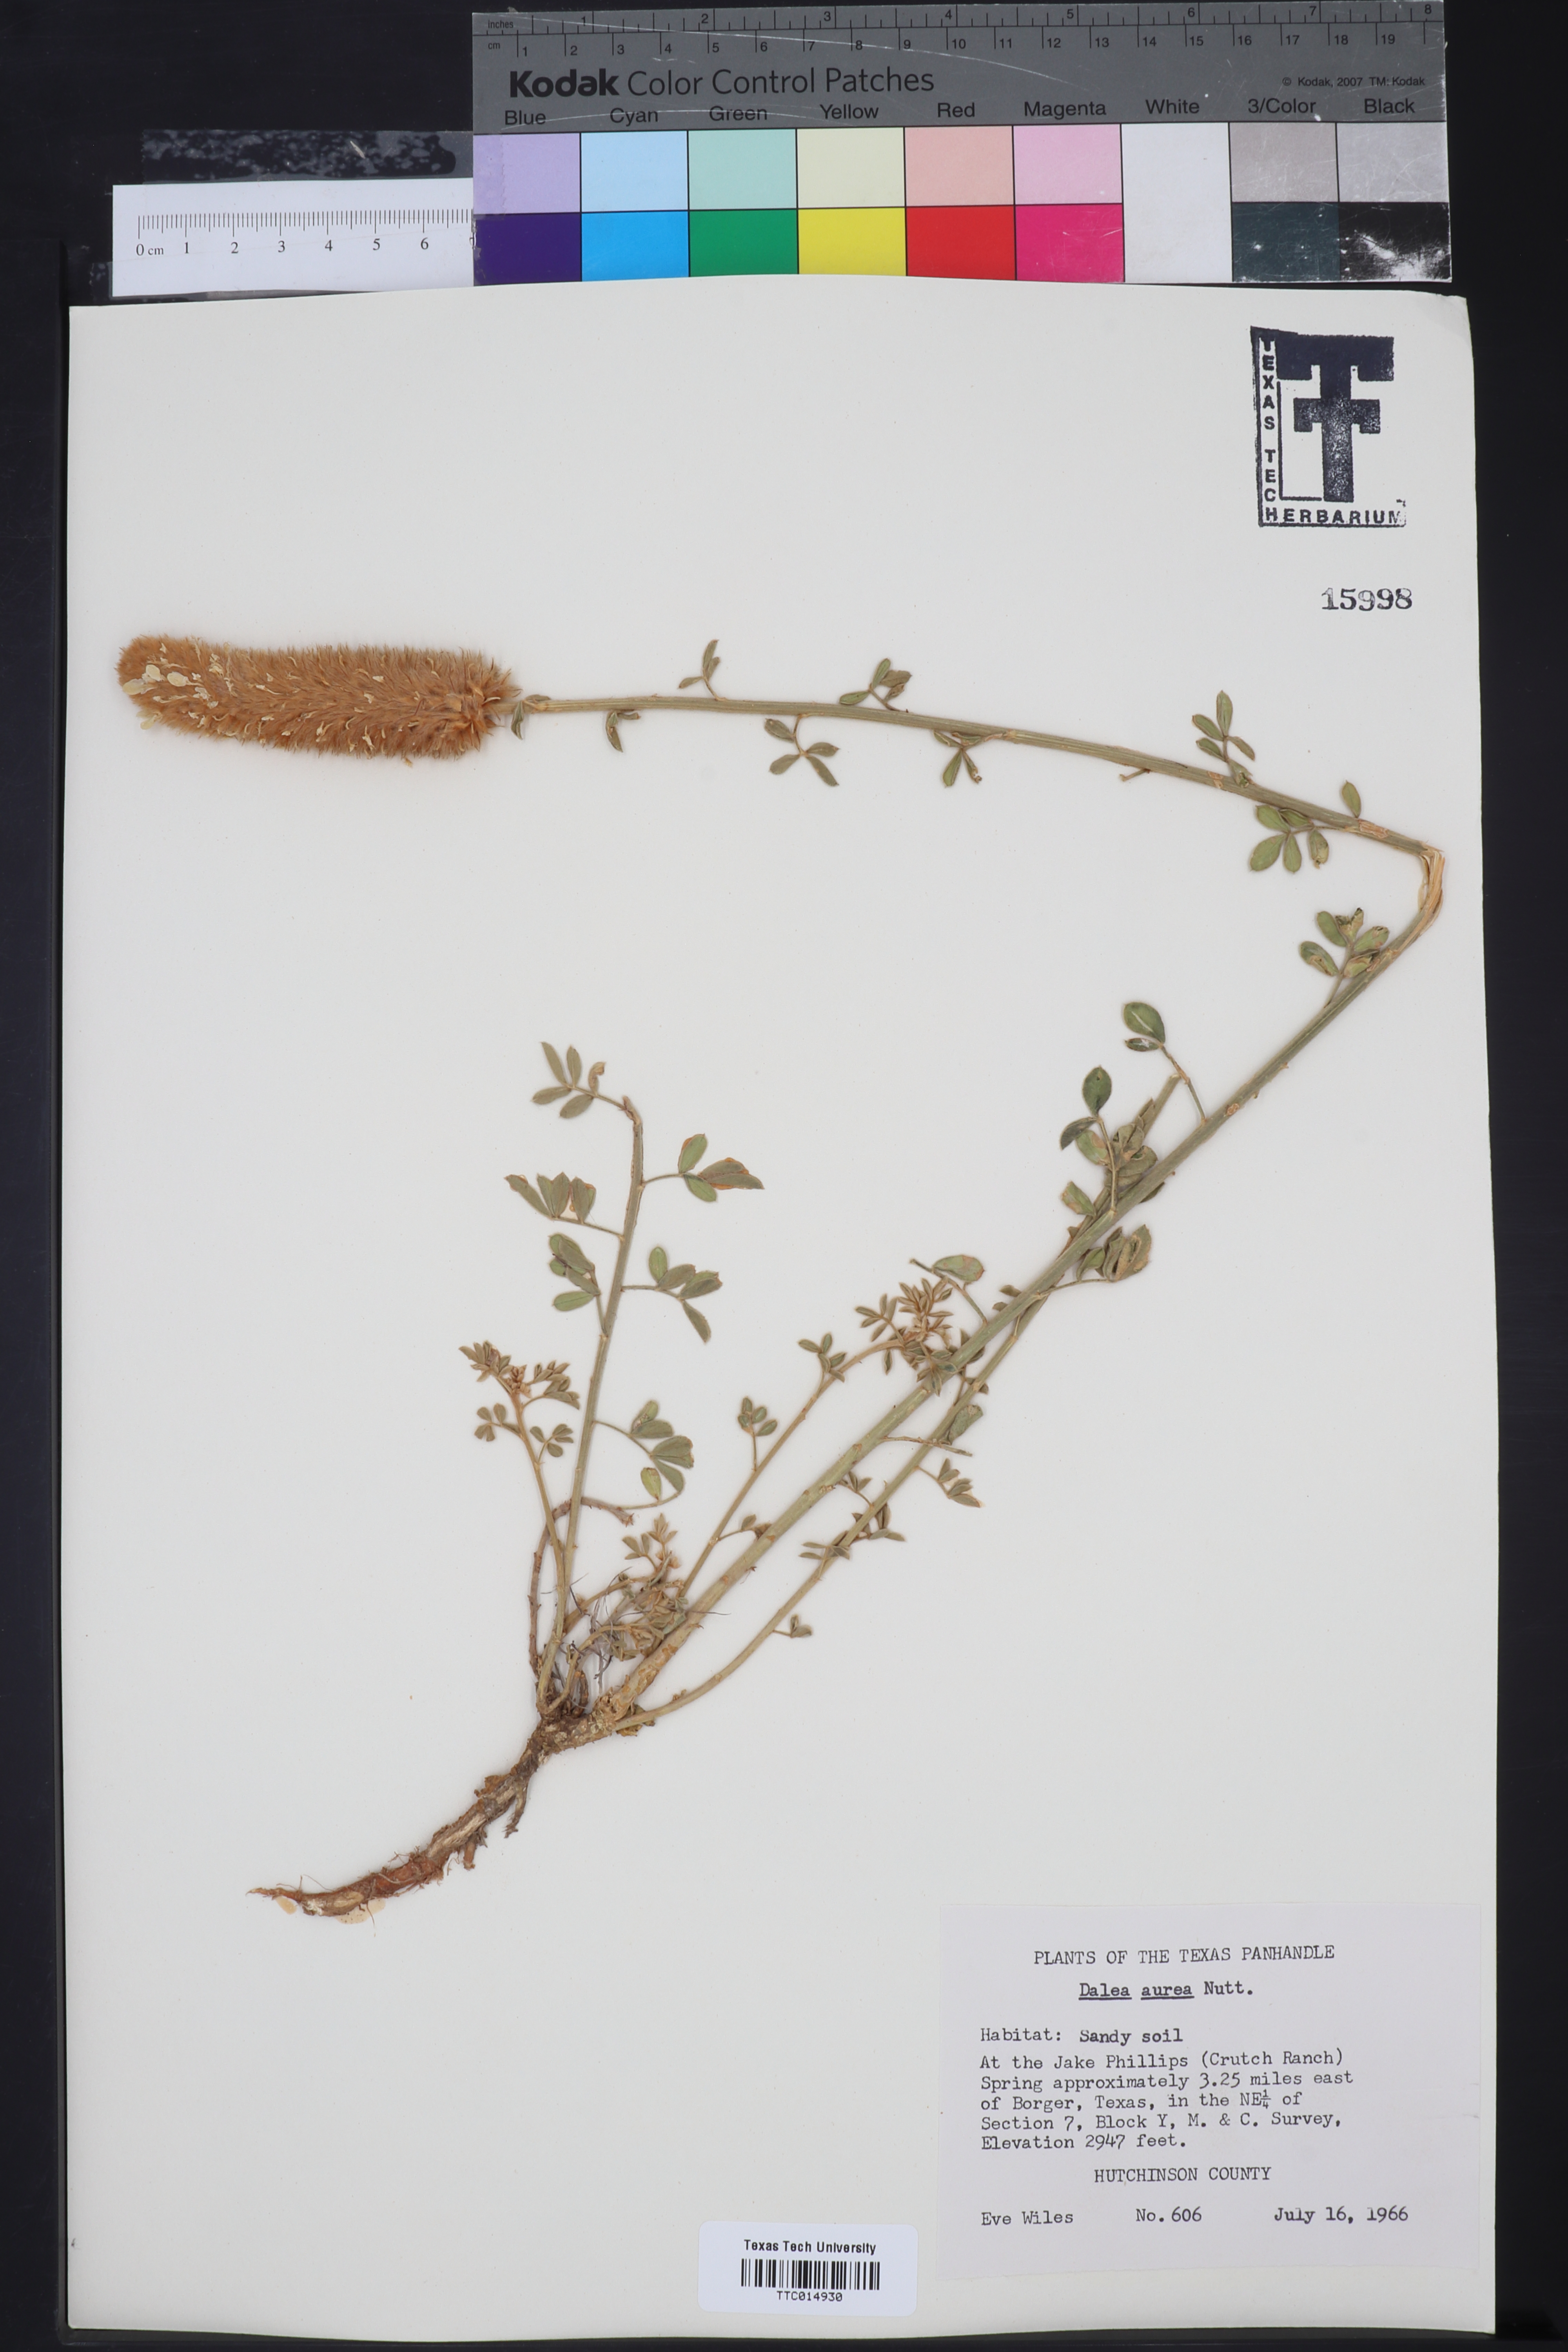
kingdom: Plantae
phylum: Tracheophyta
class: Magnoliopsida
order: Fabales
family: Fabaceae
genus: Dalea
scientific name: Dalea aurea
